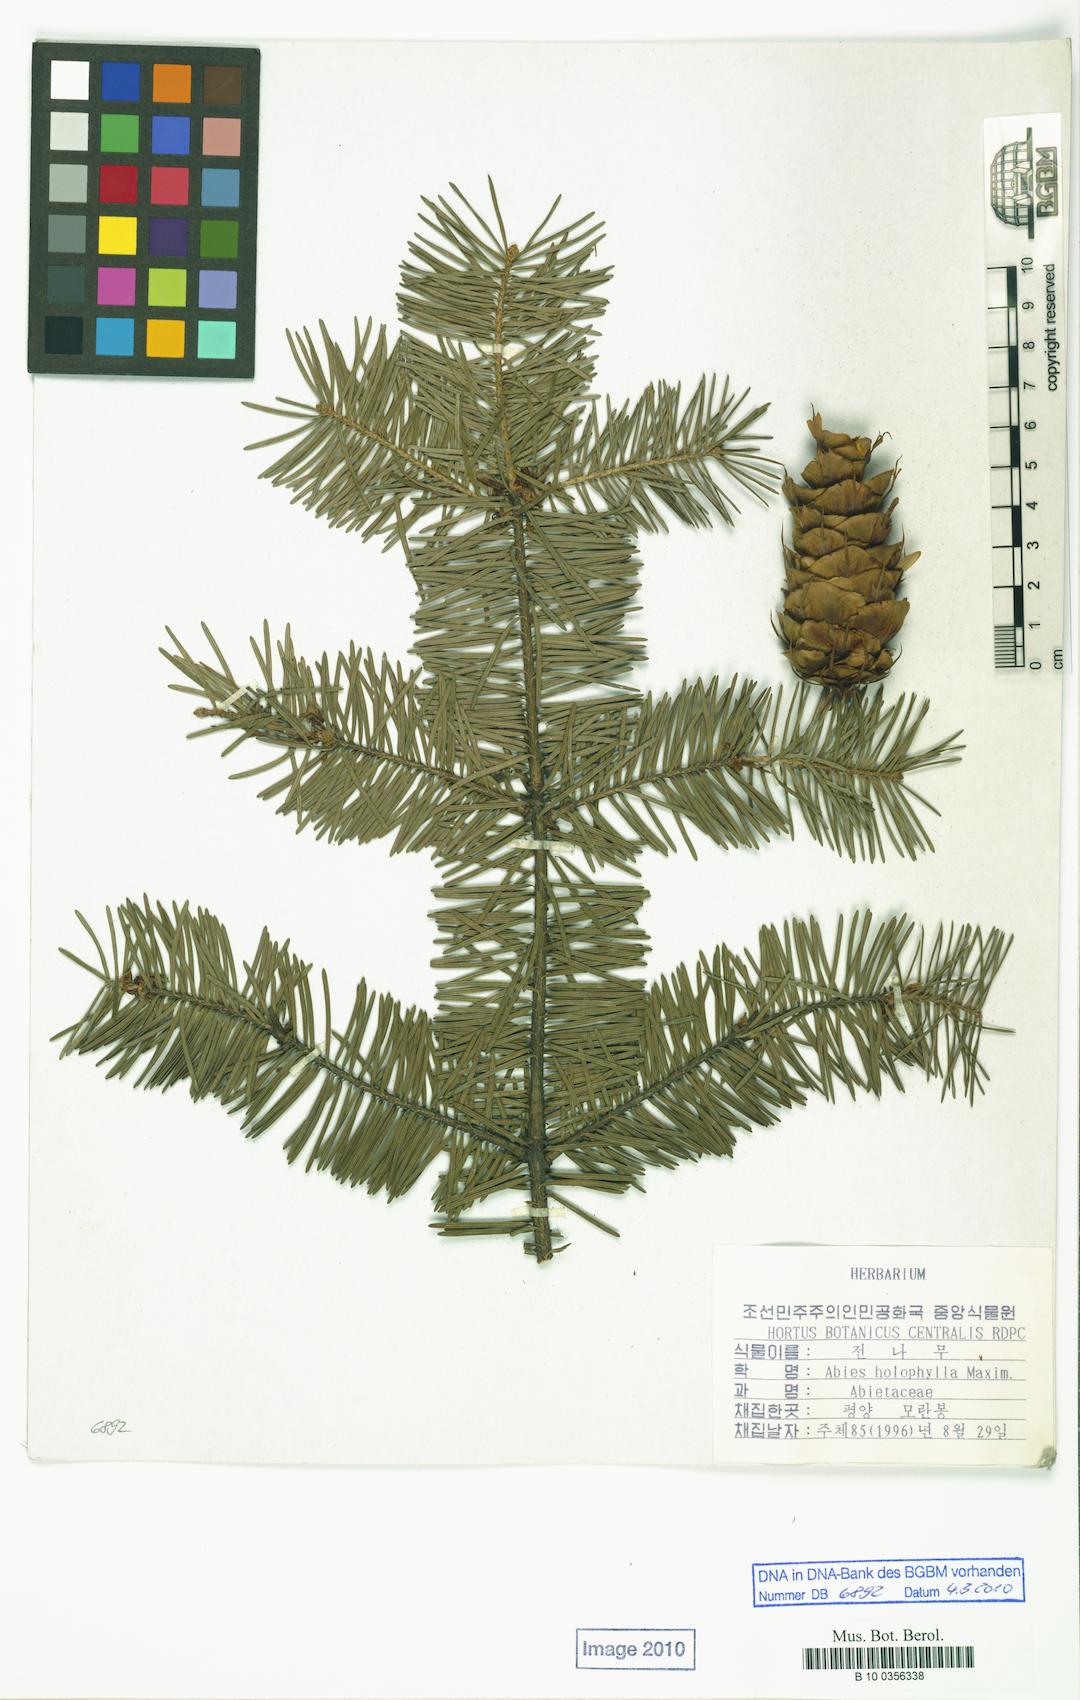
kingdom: Plantae
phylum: Tracheophyta
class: Pinopsida
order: Pinales
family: Pinaceae
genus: Abies
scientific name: Abies holophylla
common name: Manchurian fir
